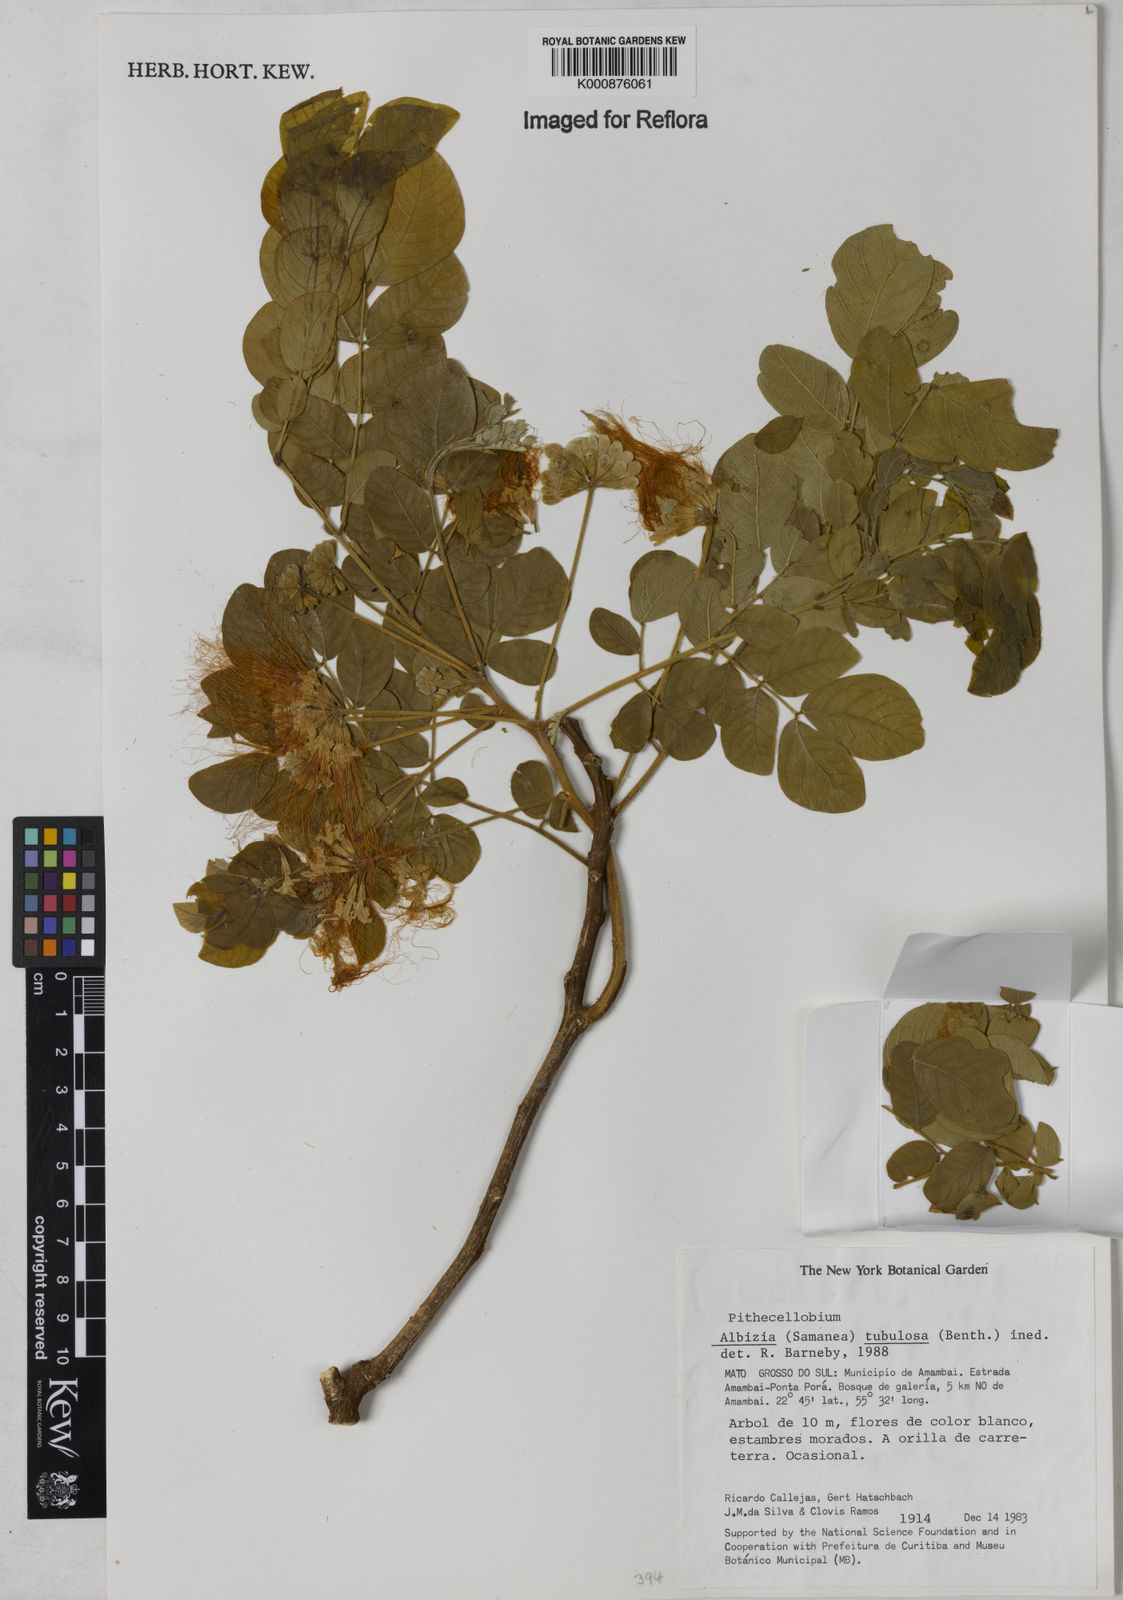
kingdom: Plantae
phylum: Tracheophyta
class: Magnoliopsida
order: Fabales
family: Fabaceae
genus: Samanea
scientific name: Samanea tubulosa
